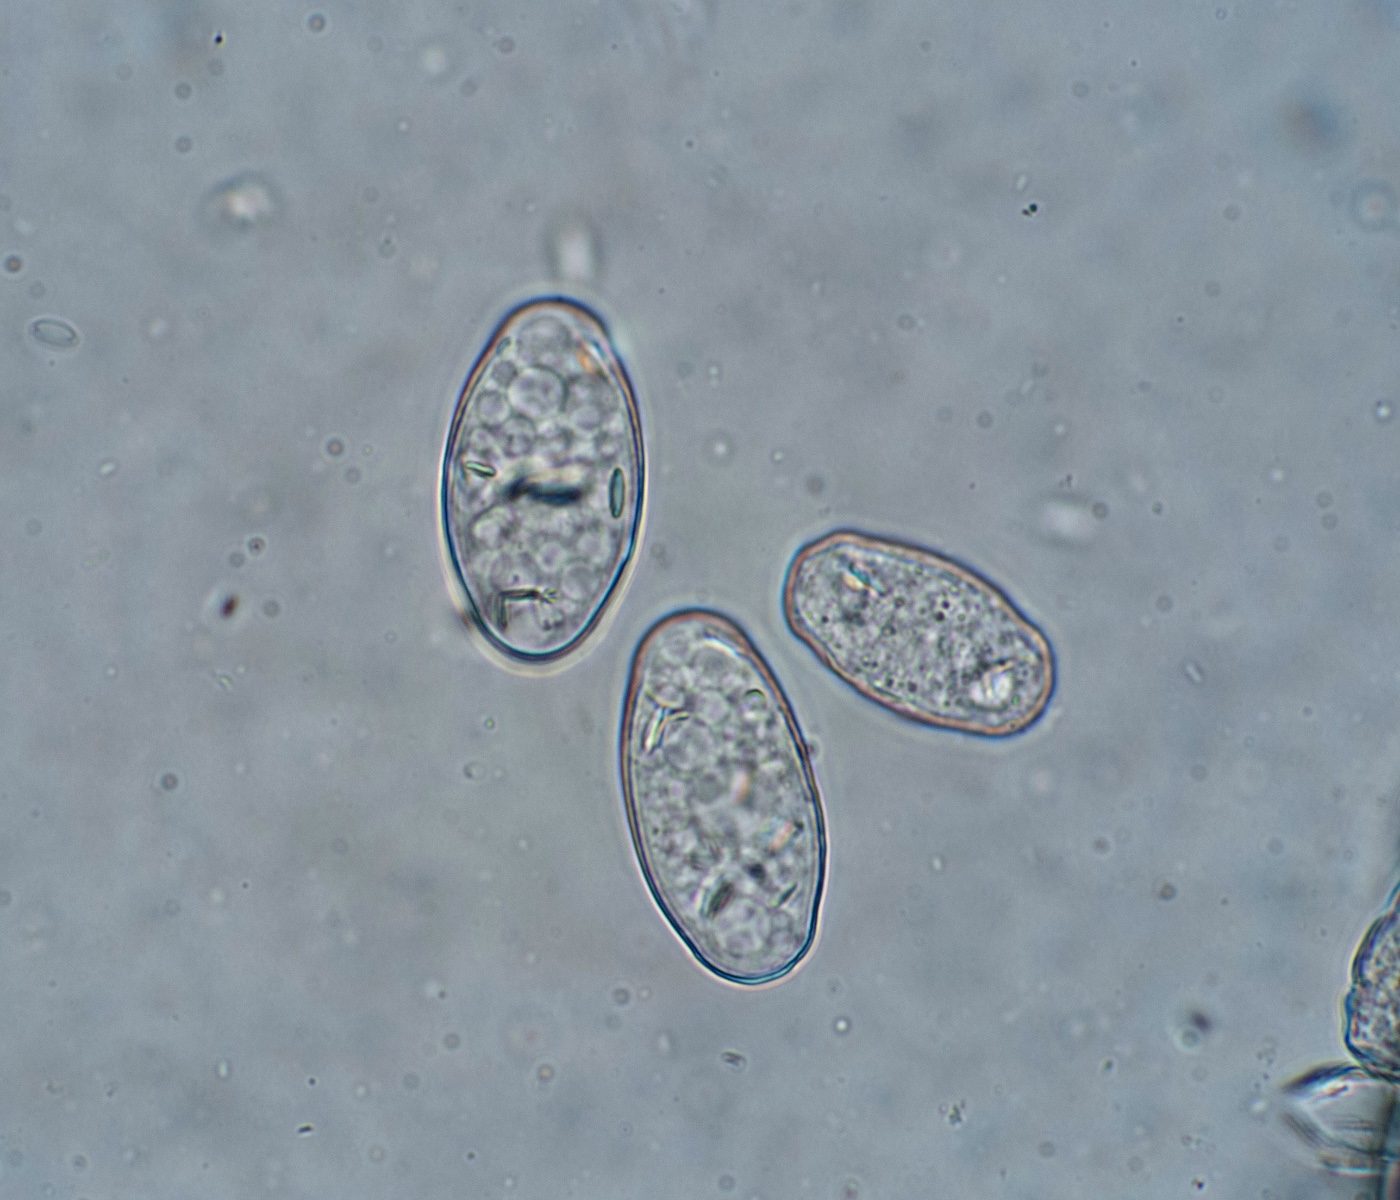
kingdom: Fungi
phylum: Ascomycota
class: Leotiomycetes
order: Helotiales
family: Erysiphaceae
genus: Podosphaera
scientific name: Podosphaera fusca
